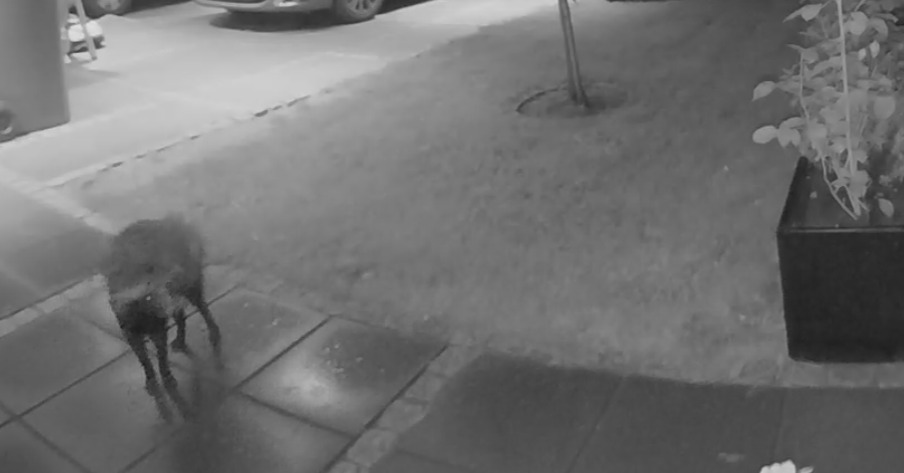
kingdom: Animalia
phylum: Chordata
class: Mammalia
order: Carnivora
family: Canidae
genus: Nyctereutes
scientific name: Nyctereutes procyonoides
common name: Mårhund
